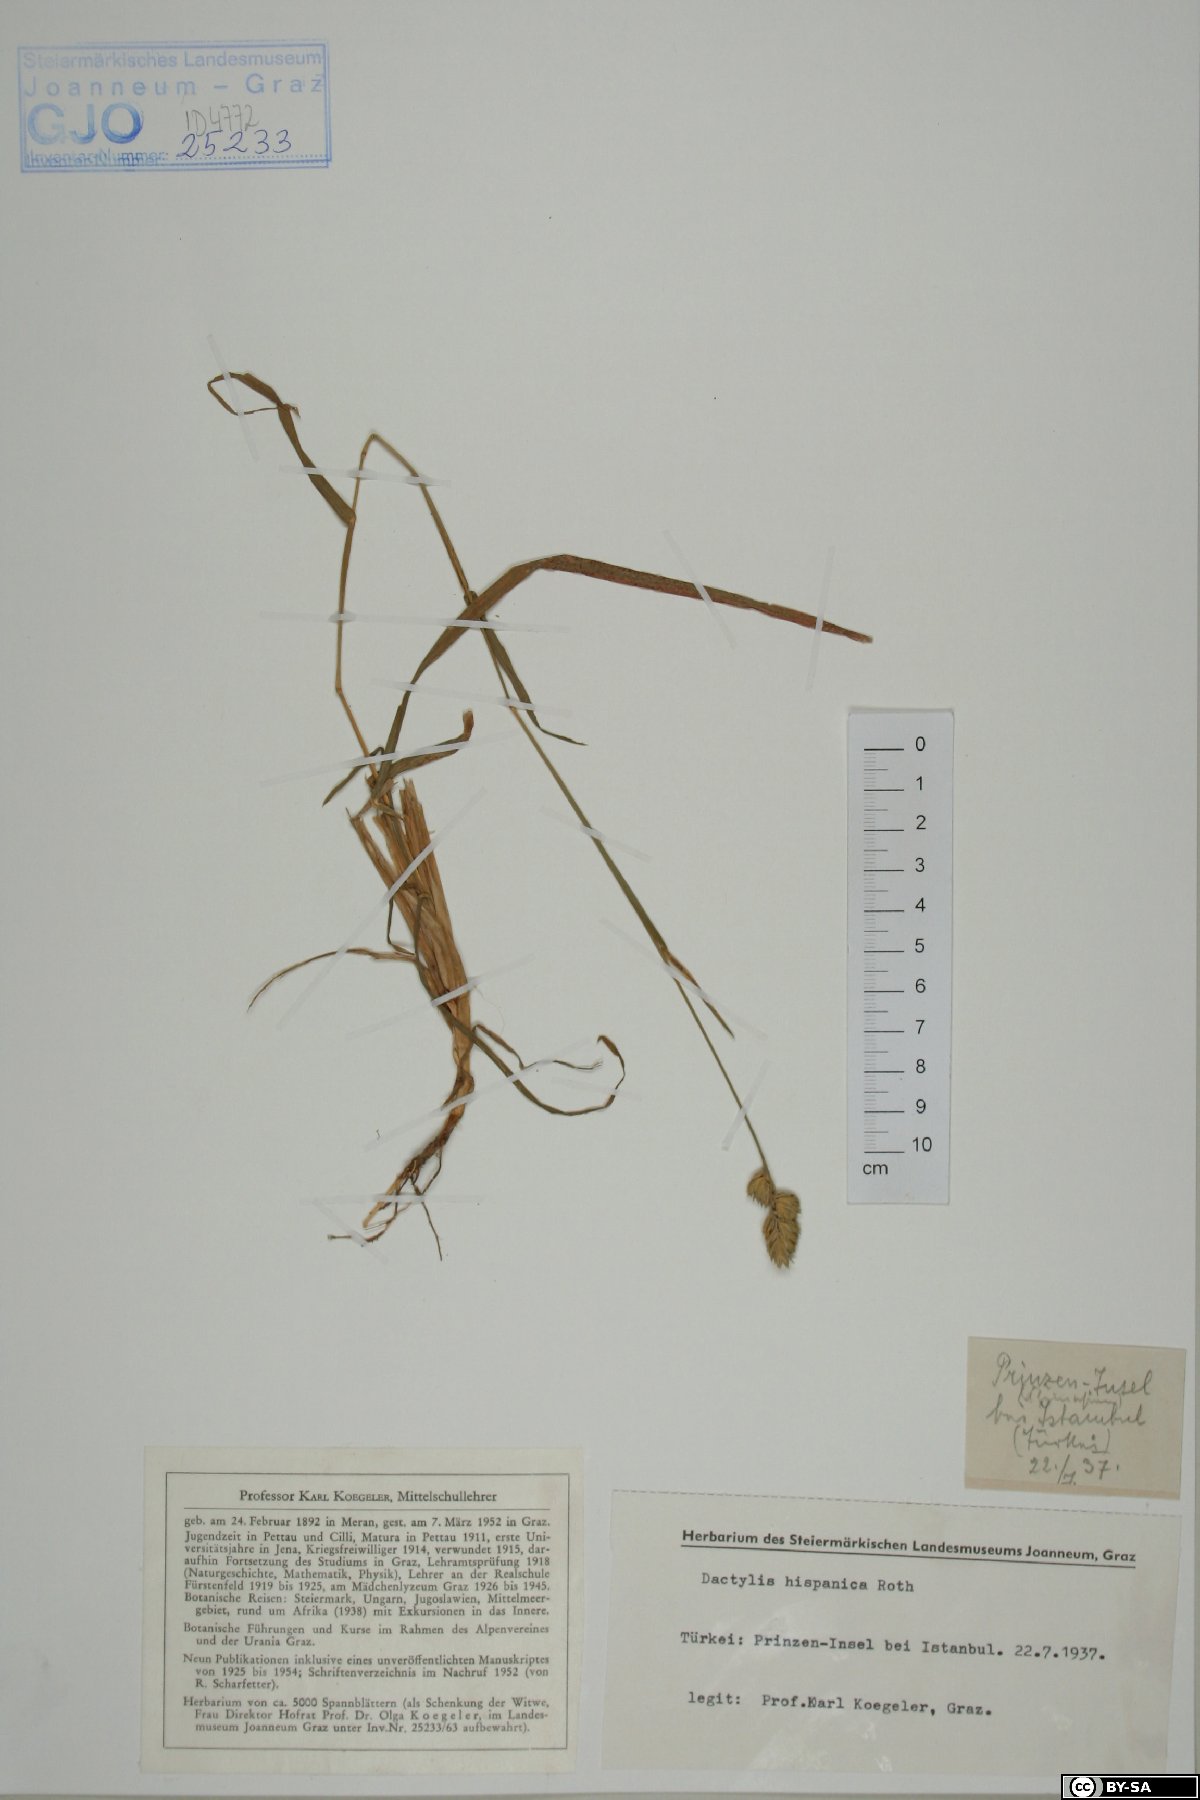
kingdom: Plantae
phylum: Tracheophyta
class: Liliopsida
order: Poales
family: Poaceae
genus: Dactylis
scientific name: Dactylis glomerata
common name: Orchardgrass
